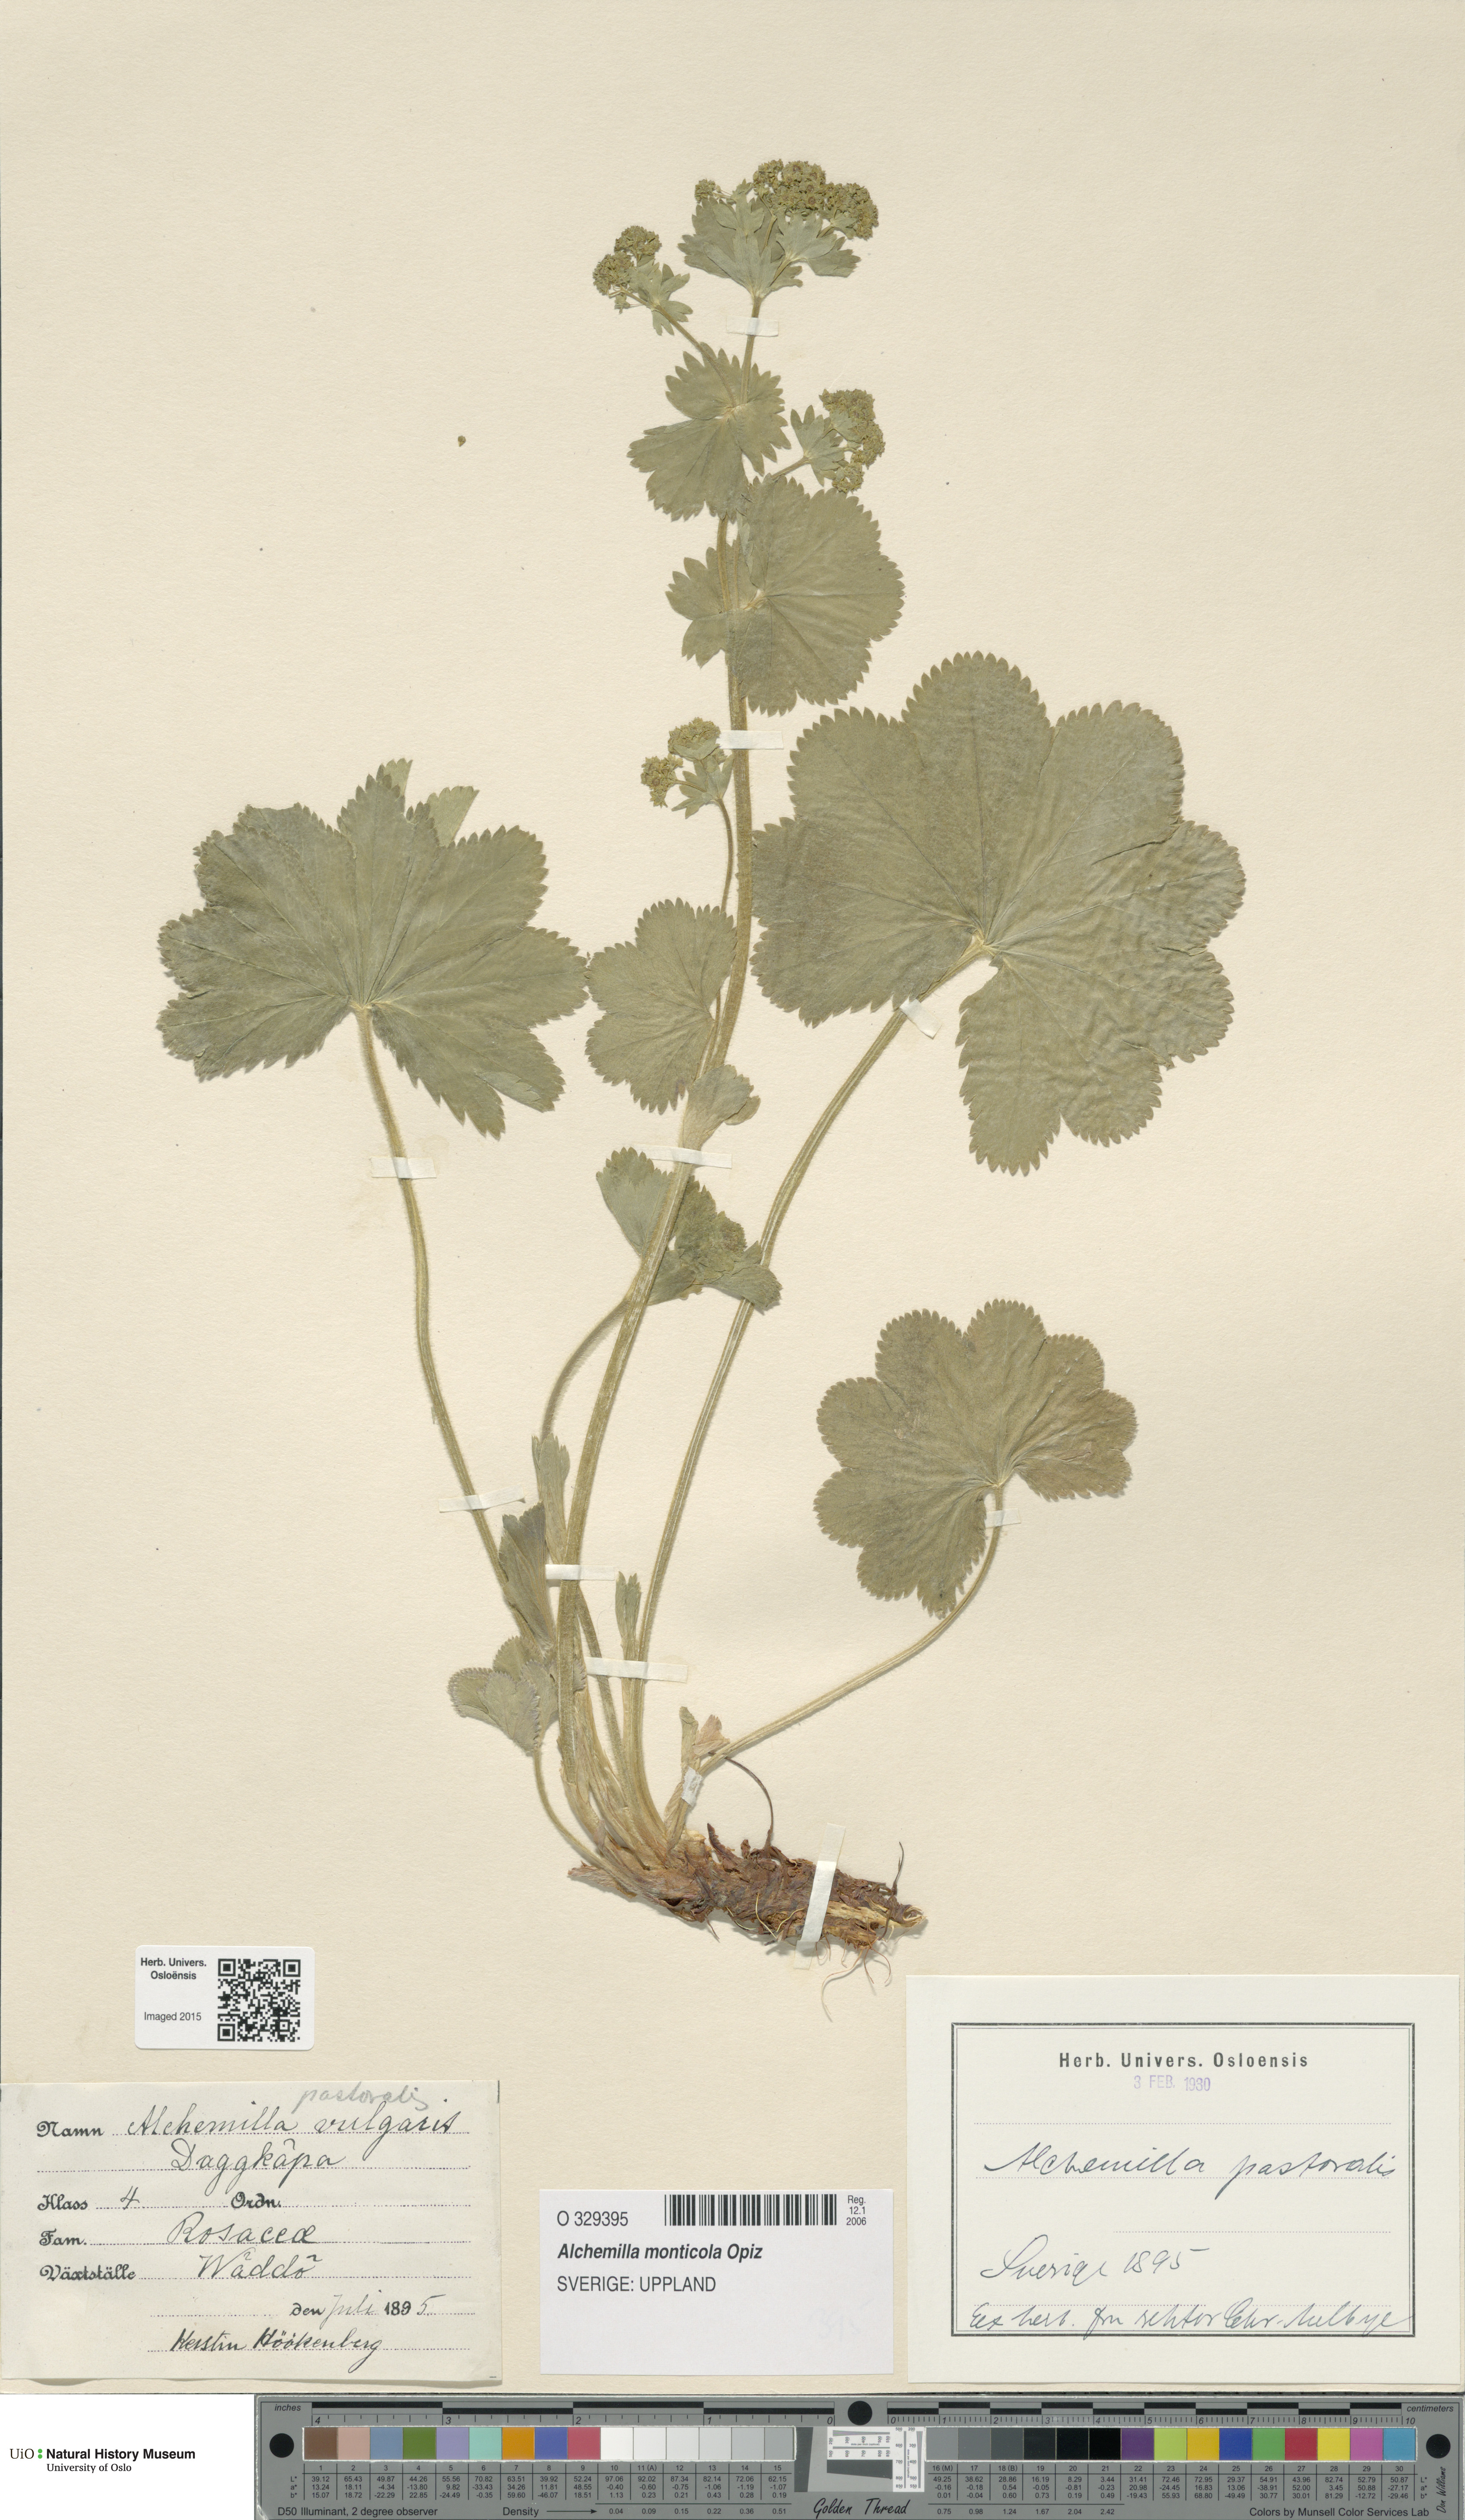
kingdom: Plantae
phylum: Tracheophyta
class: Magnoliopsida
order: Rosales
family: Rosaceae
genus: Alchemilla
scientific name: Alchemilla monticola
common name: Hairy lady's mantle
